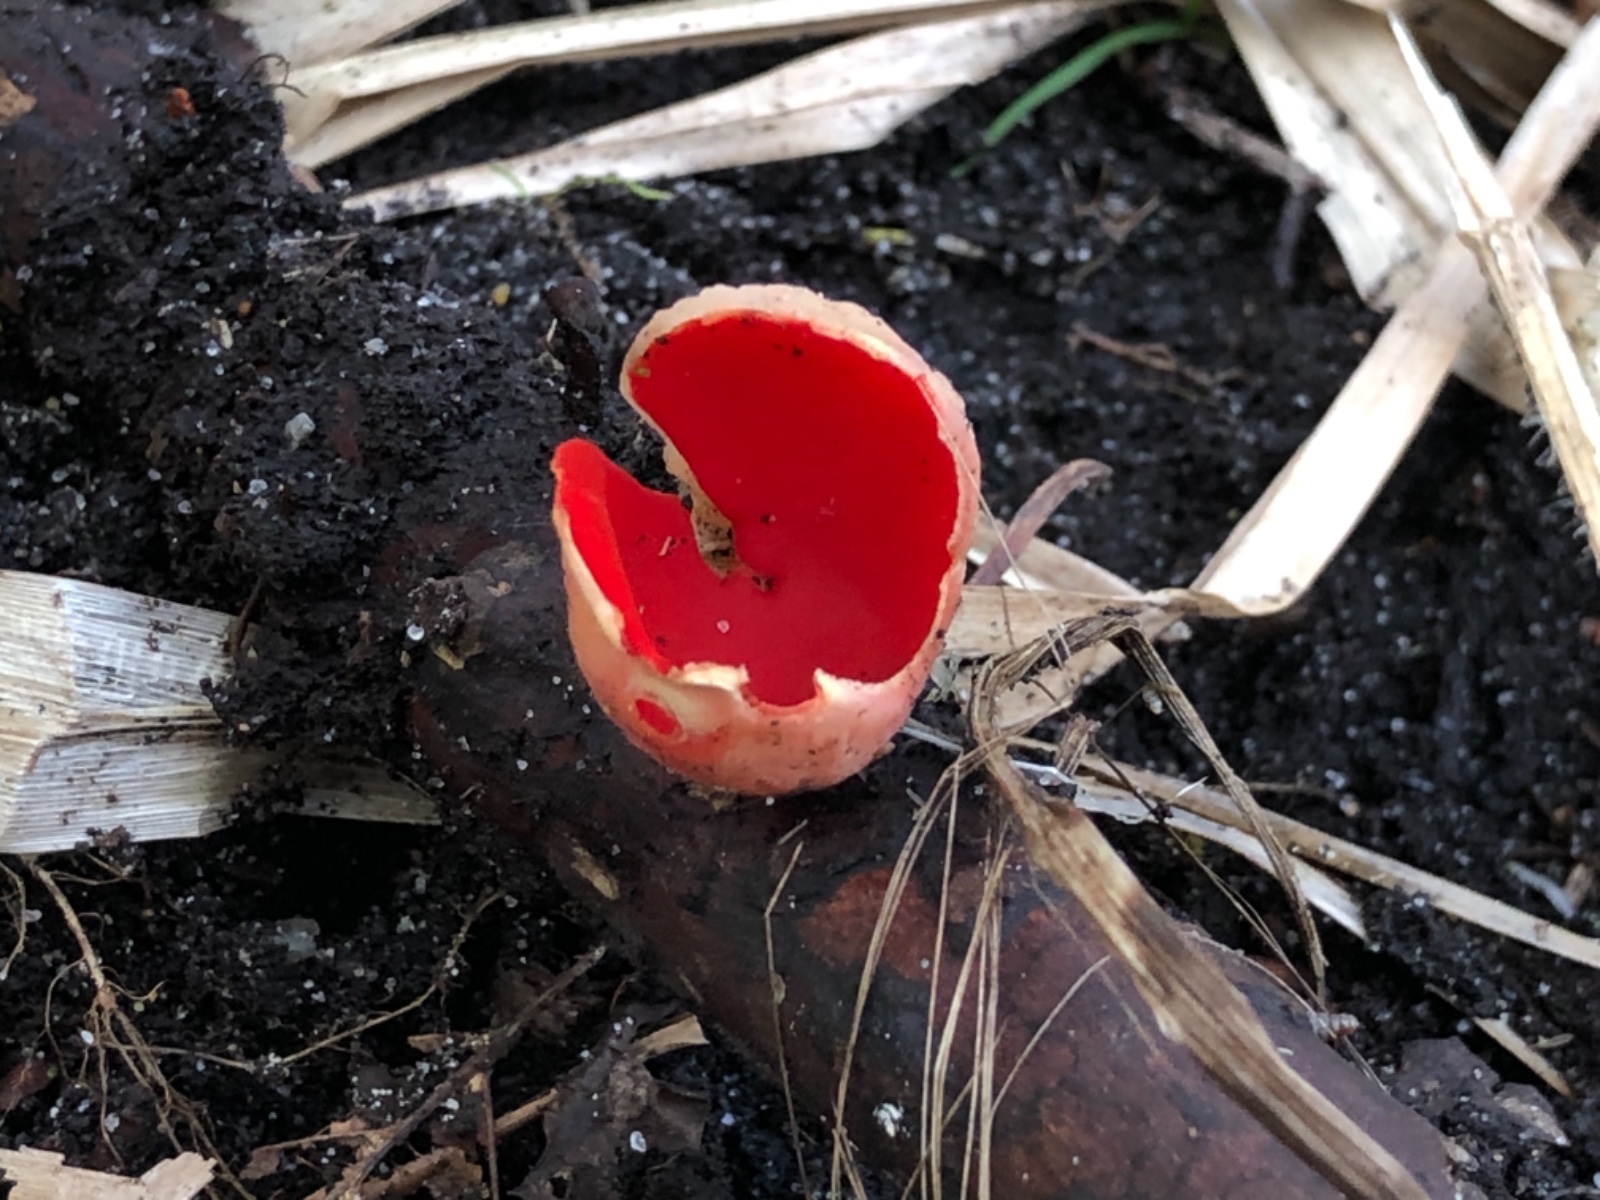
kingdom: Fungi
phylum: Ascomycota
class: Pezizomycetes
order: Pezizales
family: Sarcoscyphaceae
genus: Sarcoscypha
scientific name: Sarcoscypha austriaca
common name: krølhåret pragtbæger
